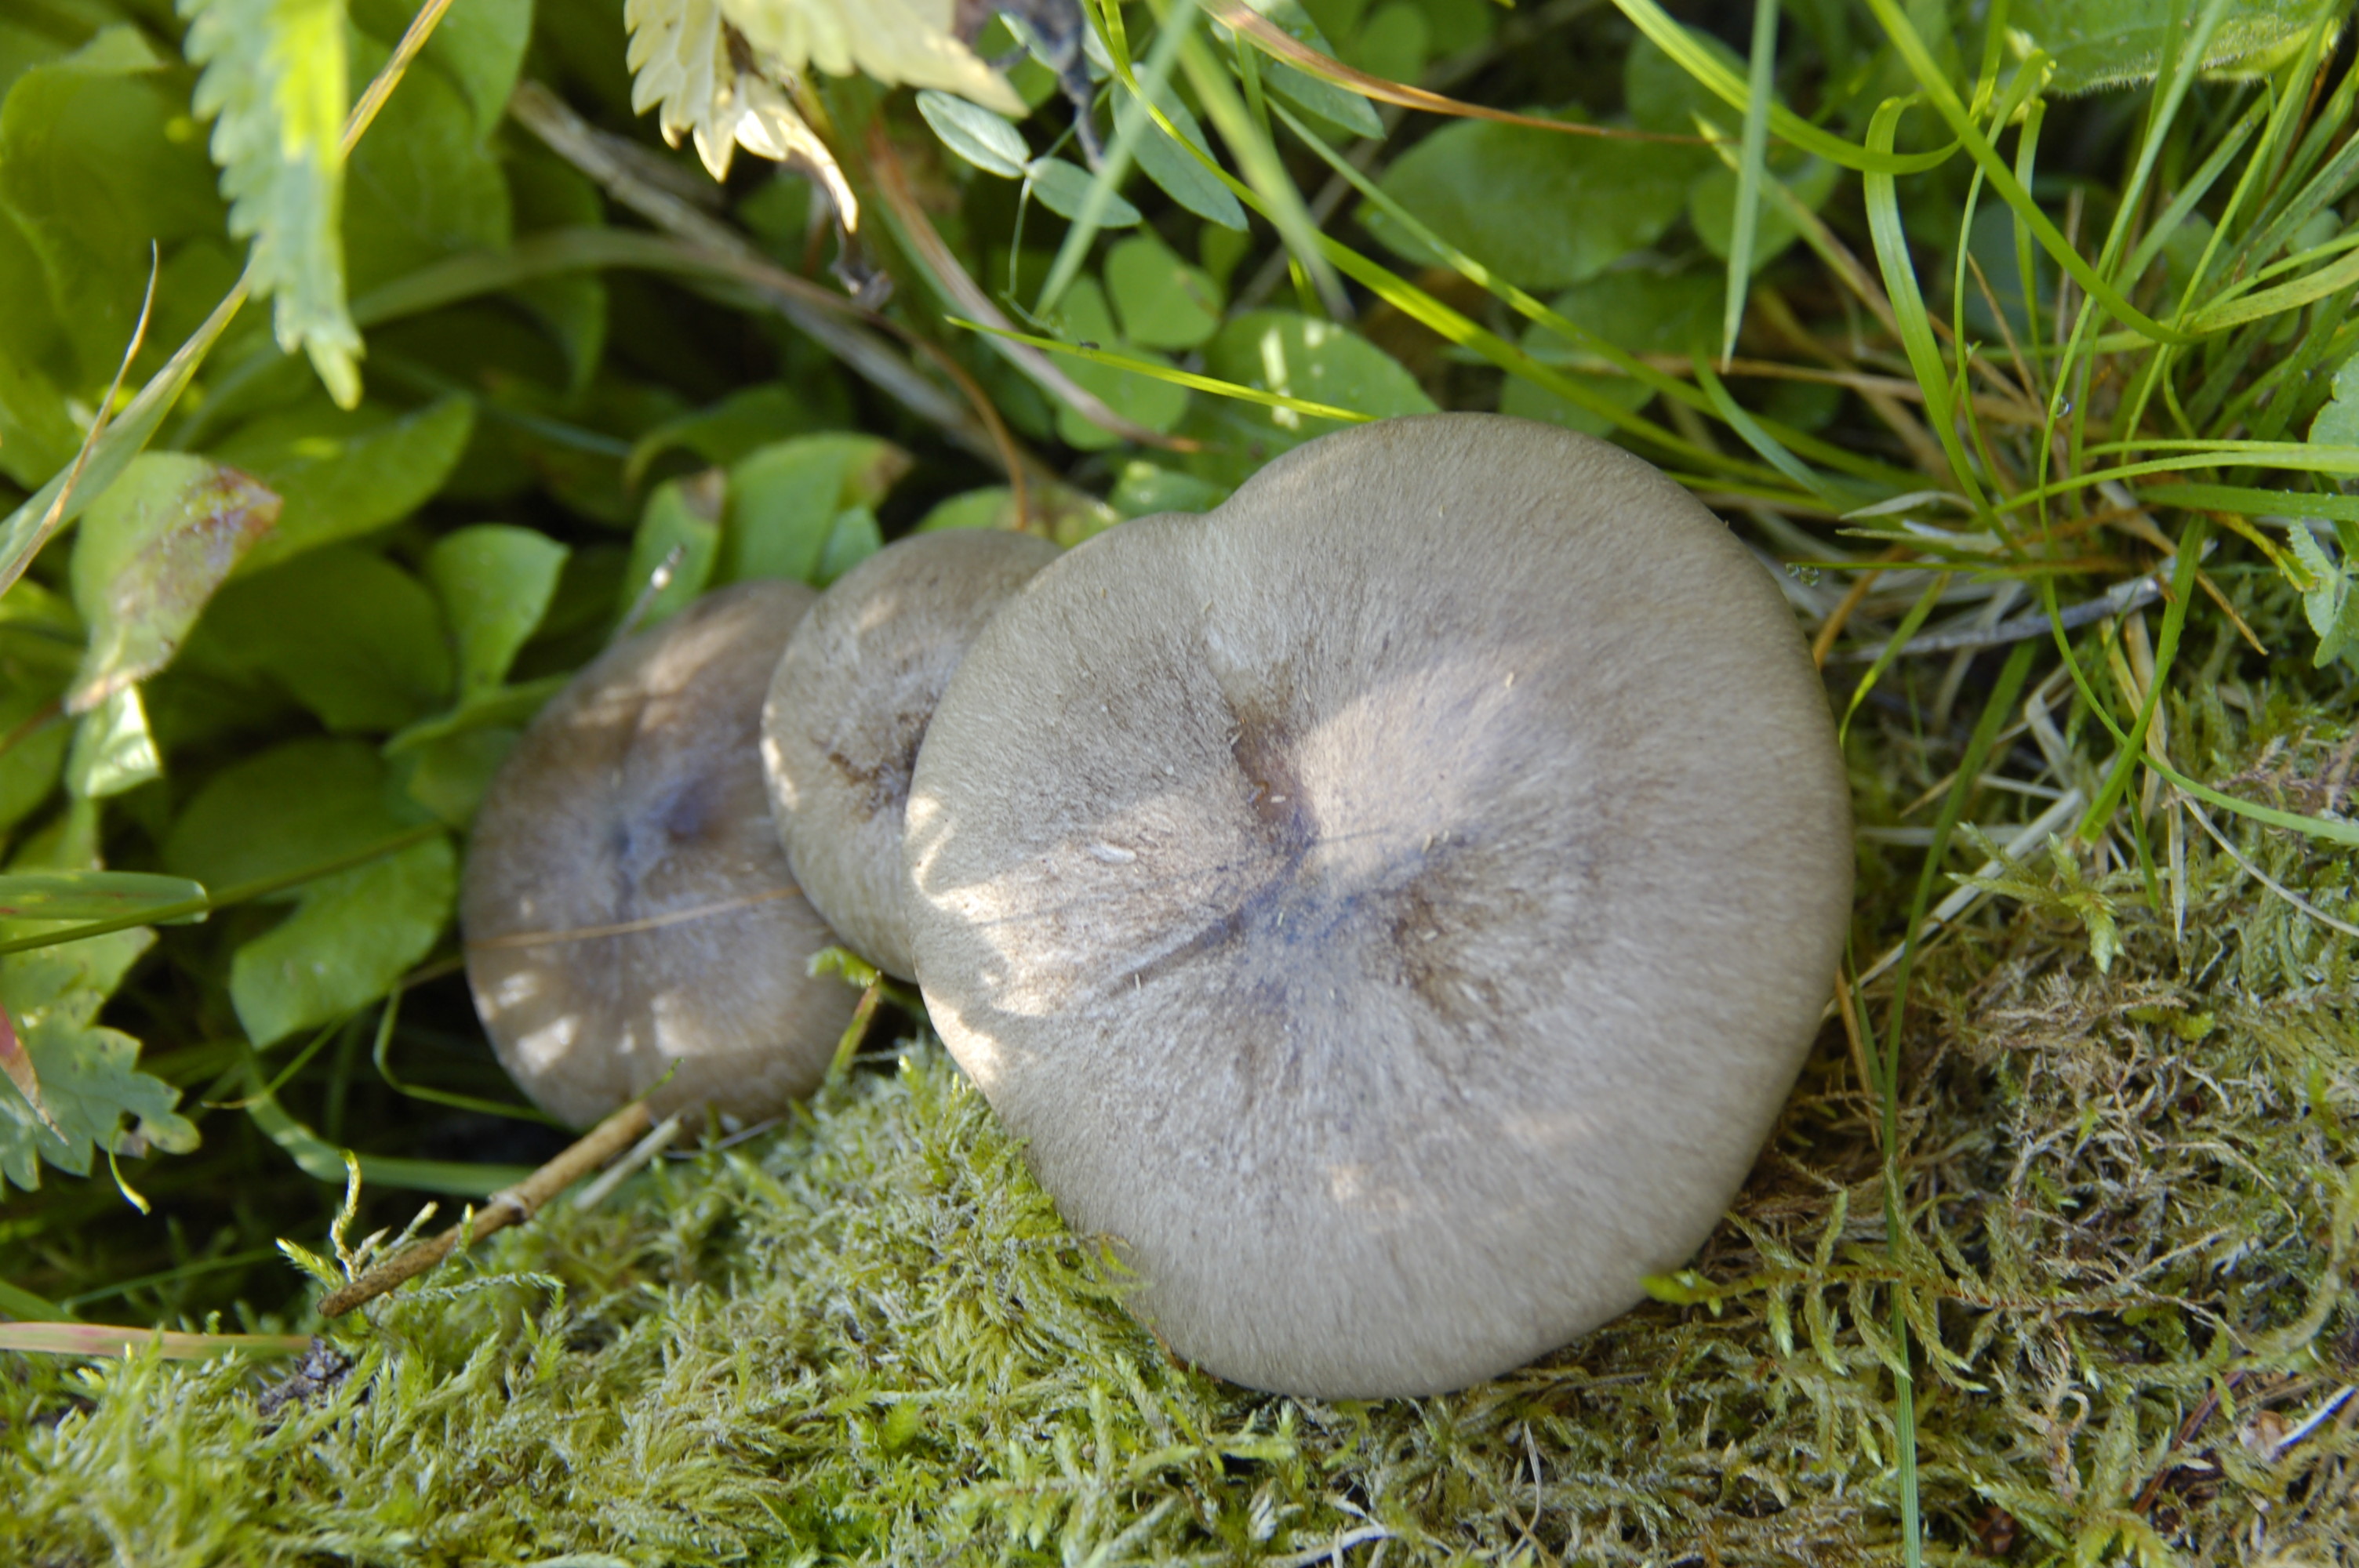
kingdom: Fungi
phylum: Basidiomycota
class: Agaricomycetes
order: Agaricales
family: Tricholomataceae
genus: Megacollybia
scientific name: Megacollybia platyphylla
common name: Whitelaced shank
